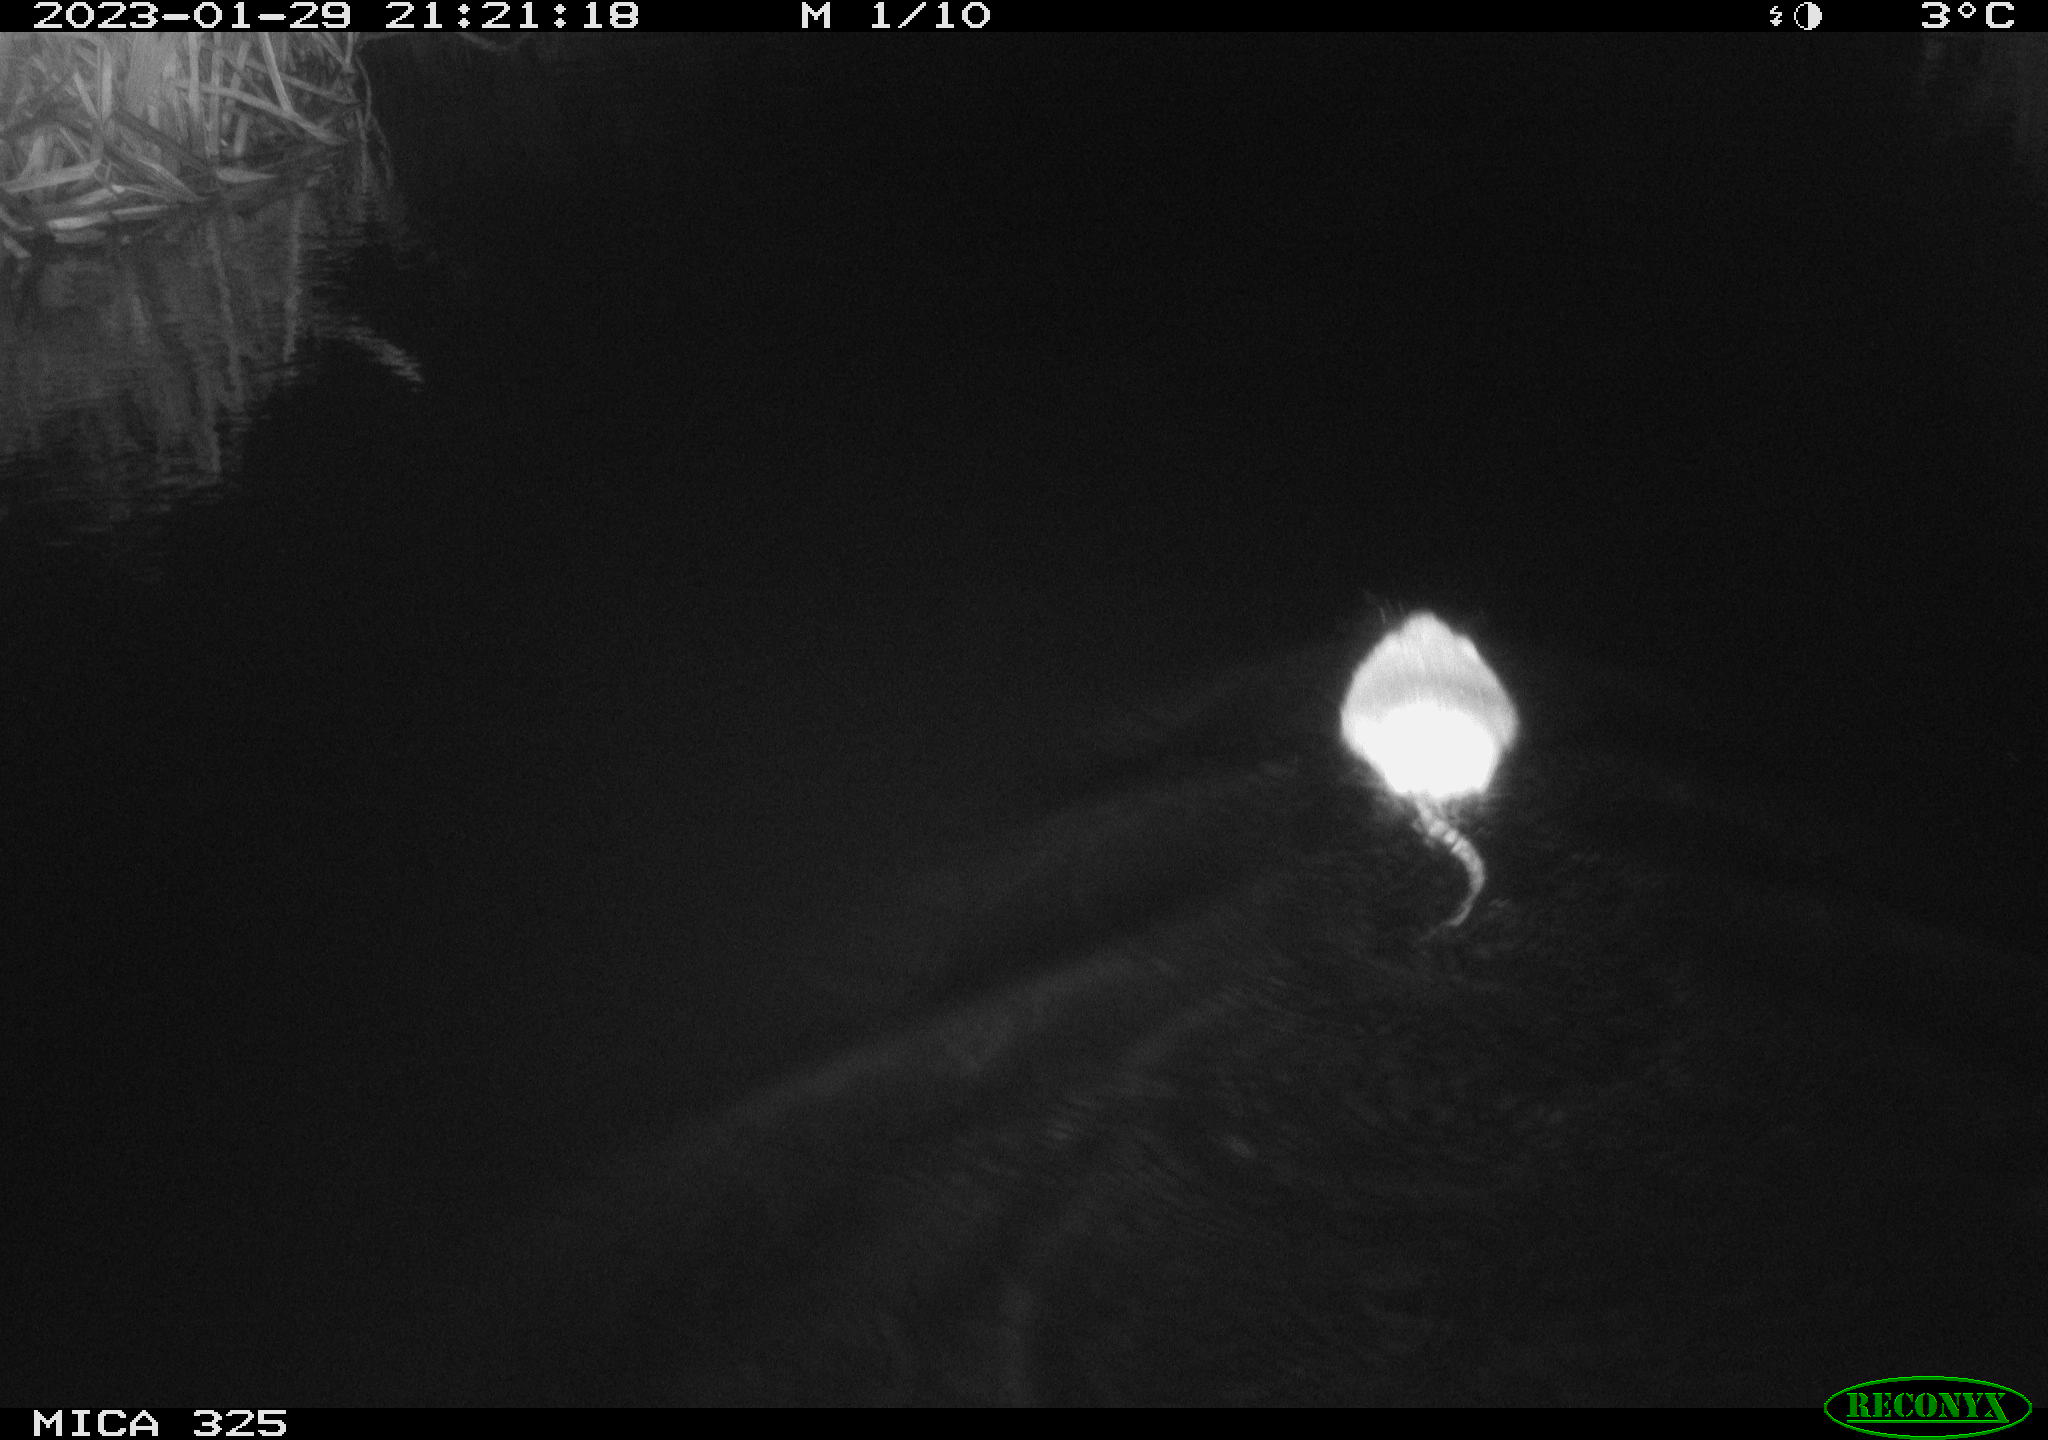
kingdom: Animalia
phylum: Chordata
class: Mammalia
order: Rodentia
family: Cricetidae
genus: Ondatra
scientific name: Ondatra zibethicus
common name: Muskrat
